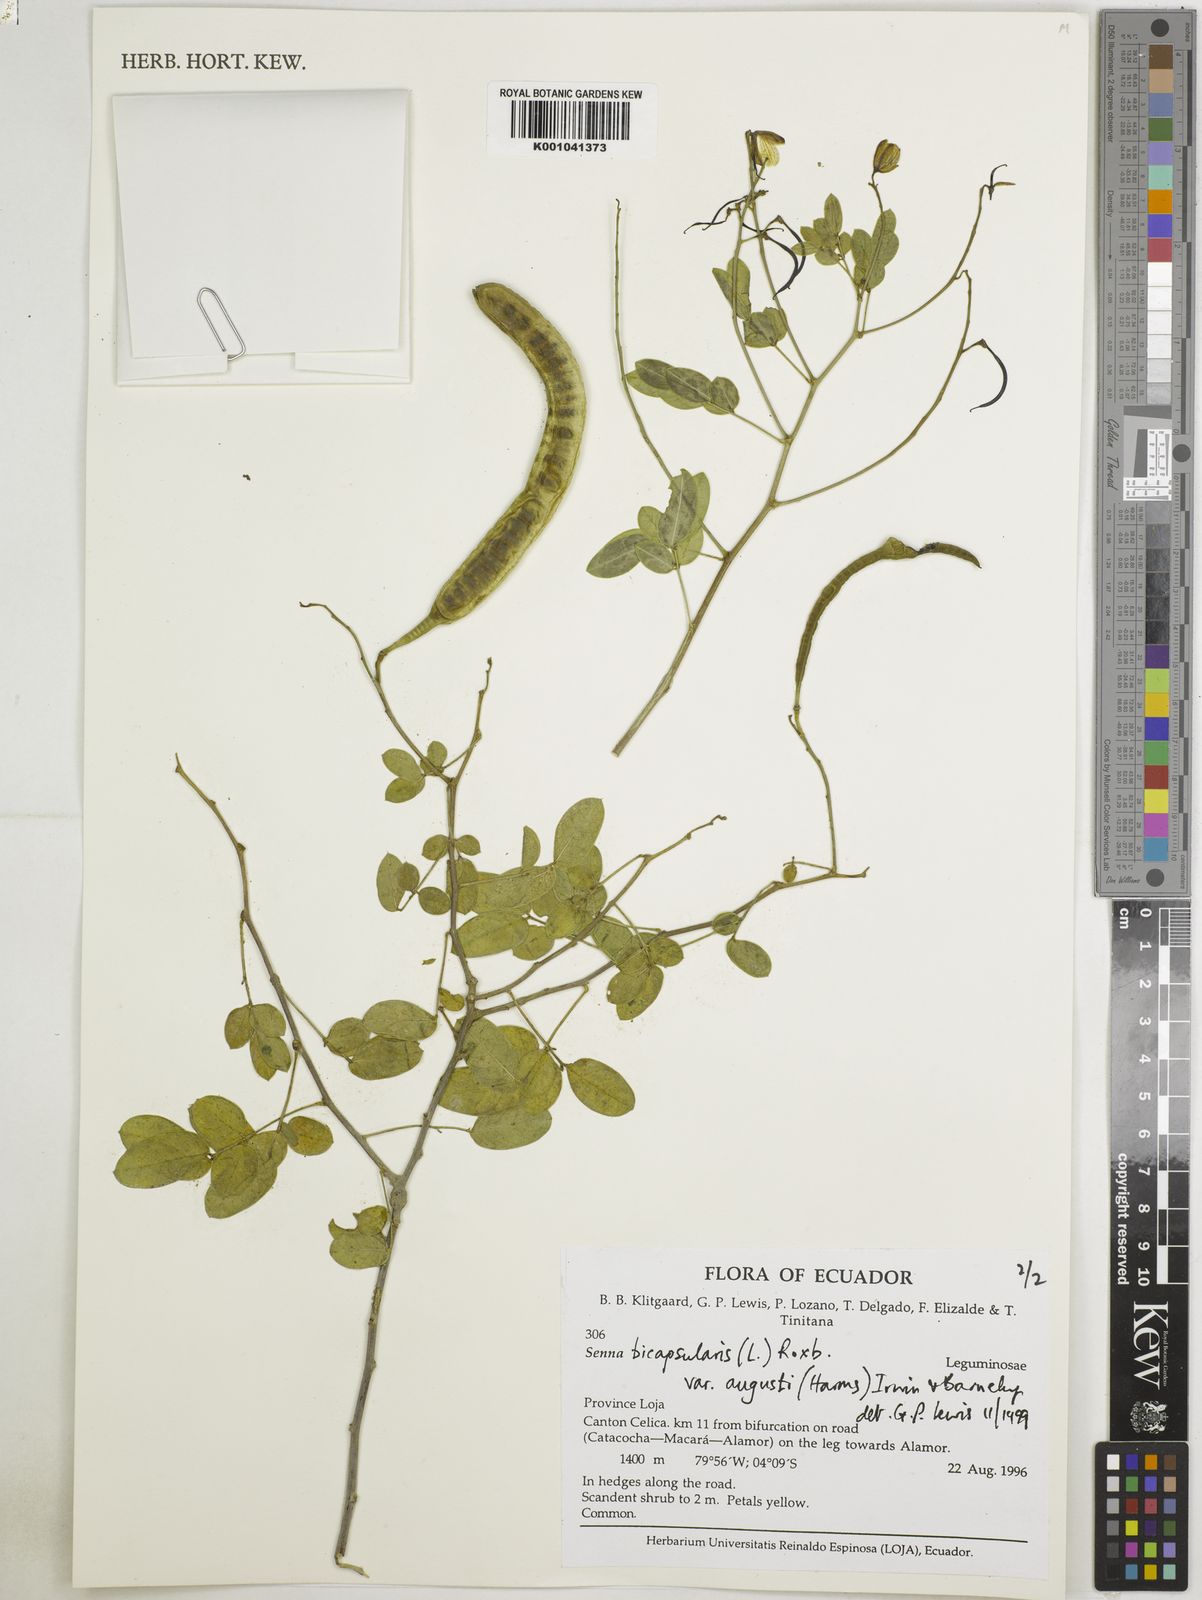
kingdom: Plantae
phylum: Tracheophyta
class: Magnoliopsida
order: Fabales
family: Fabaceae
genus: Senna
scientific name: Senna bicapsularis
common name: Christmasbush
